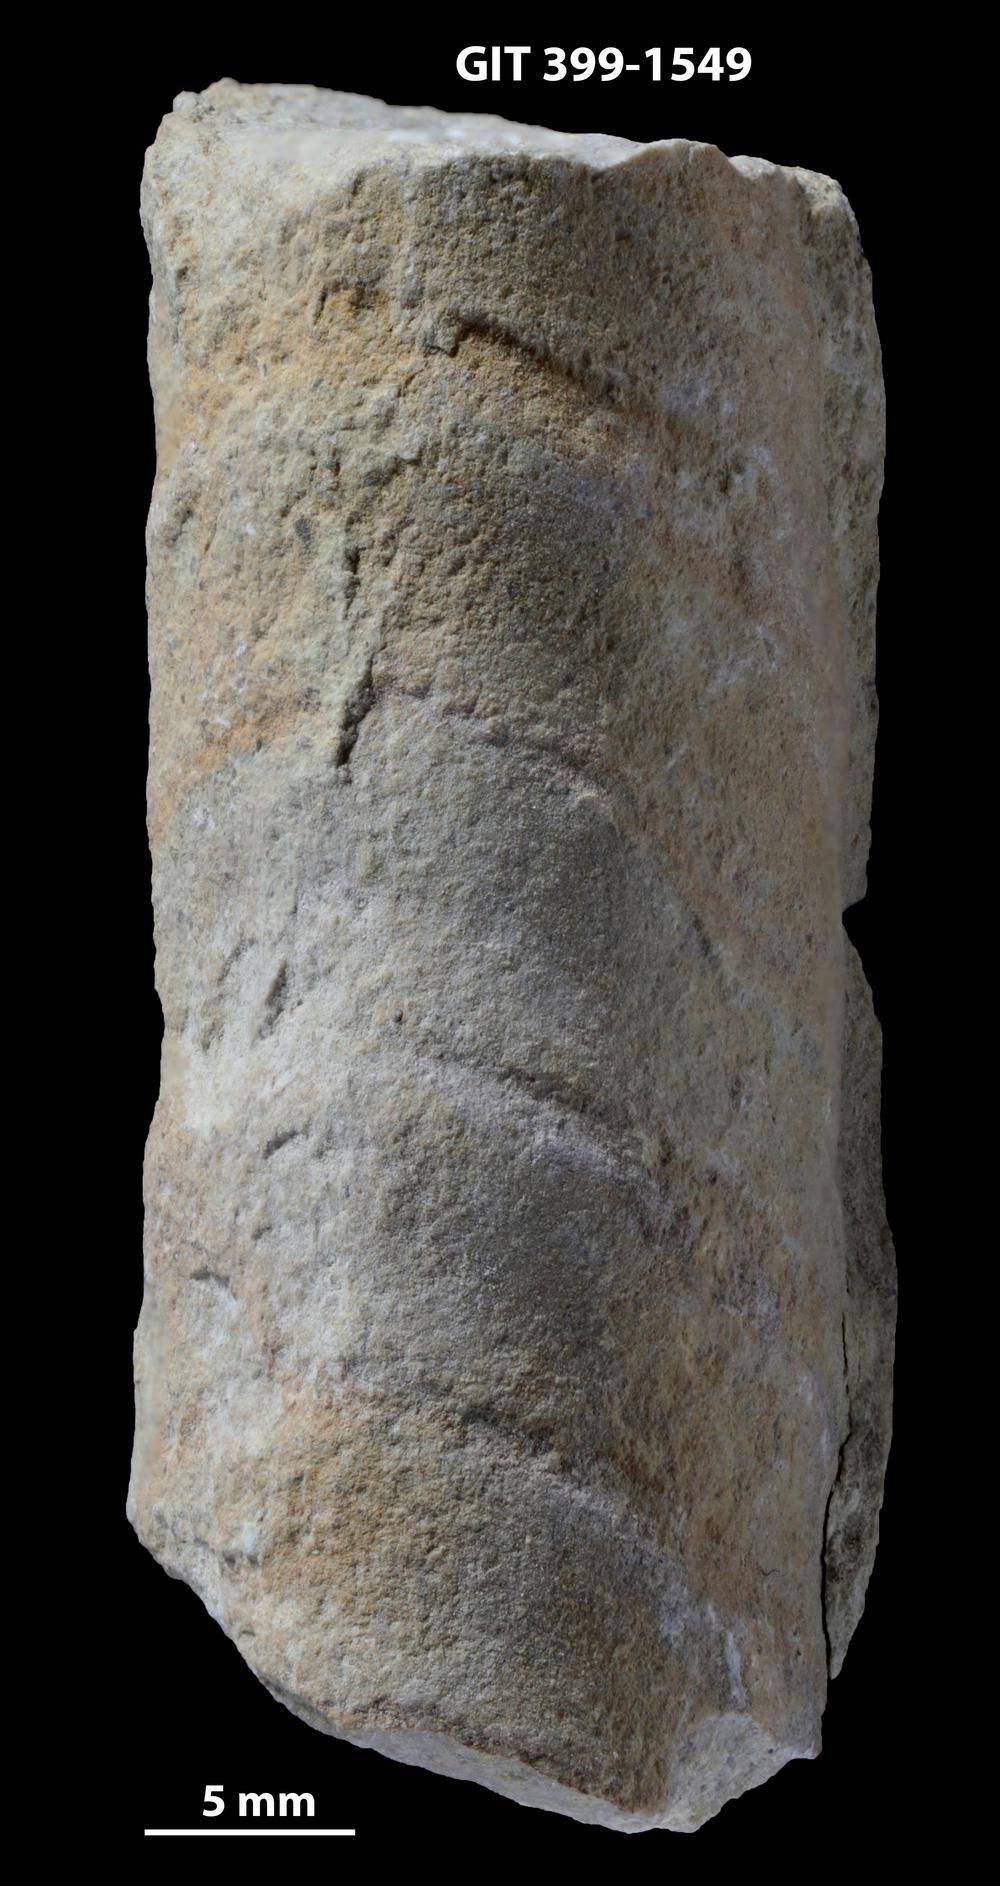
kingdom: Animalia
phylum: Mollusca
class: Cephalopoda
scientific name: Cephalopoda
